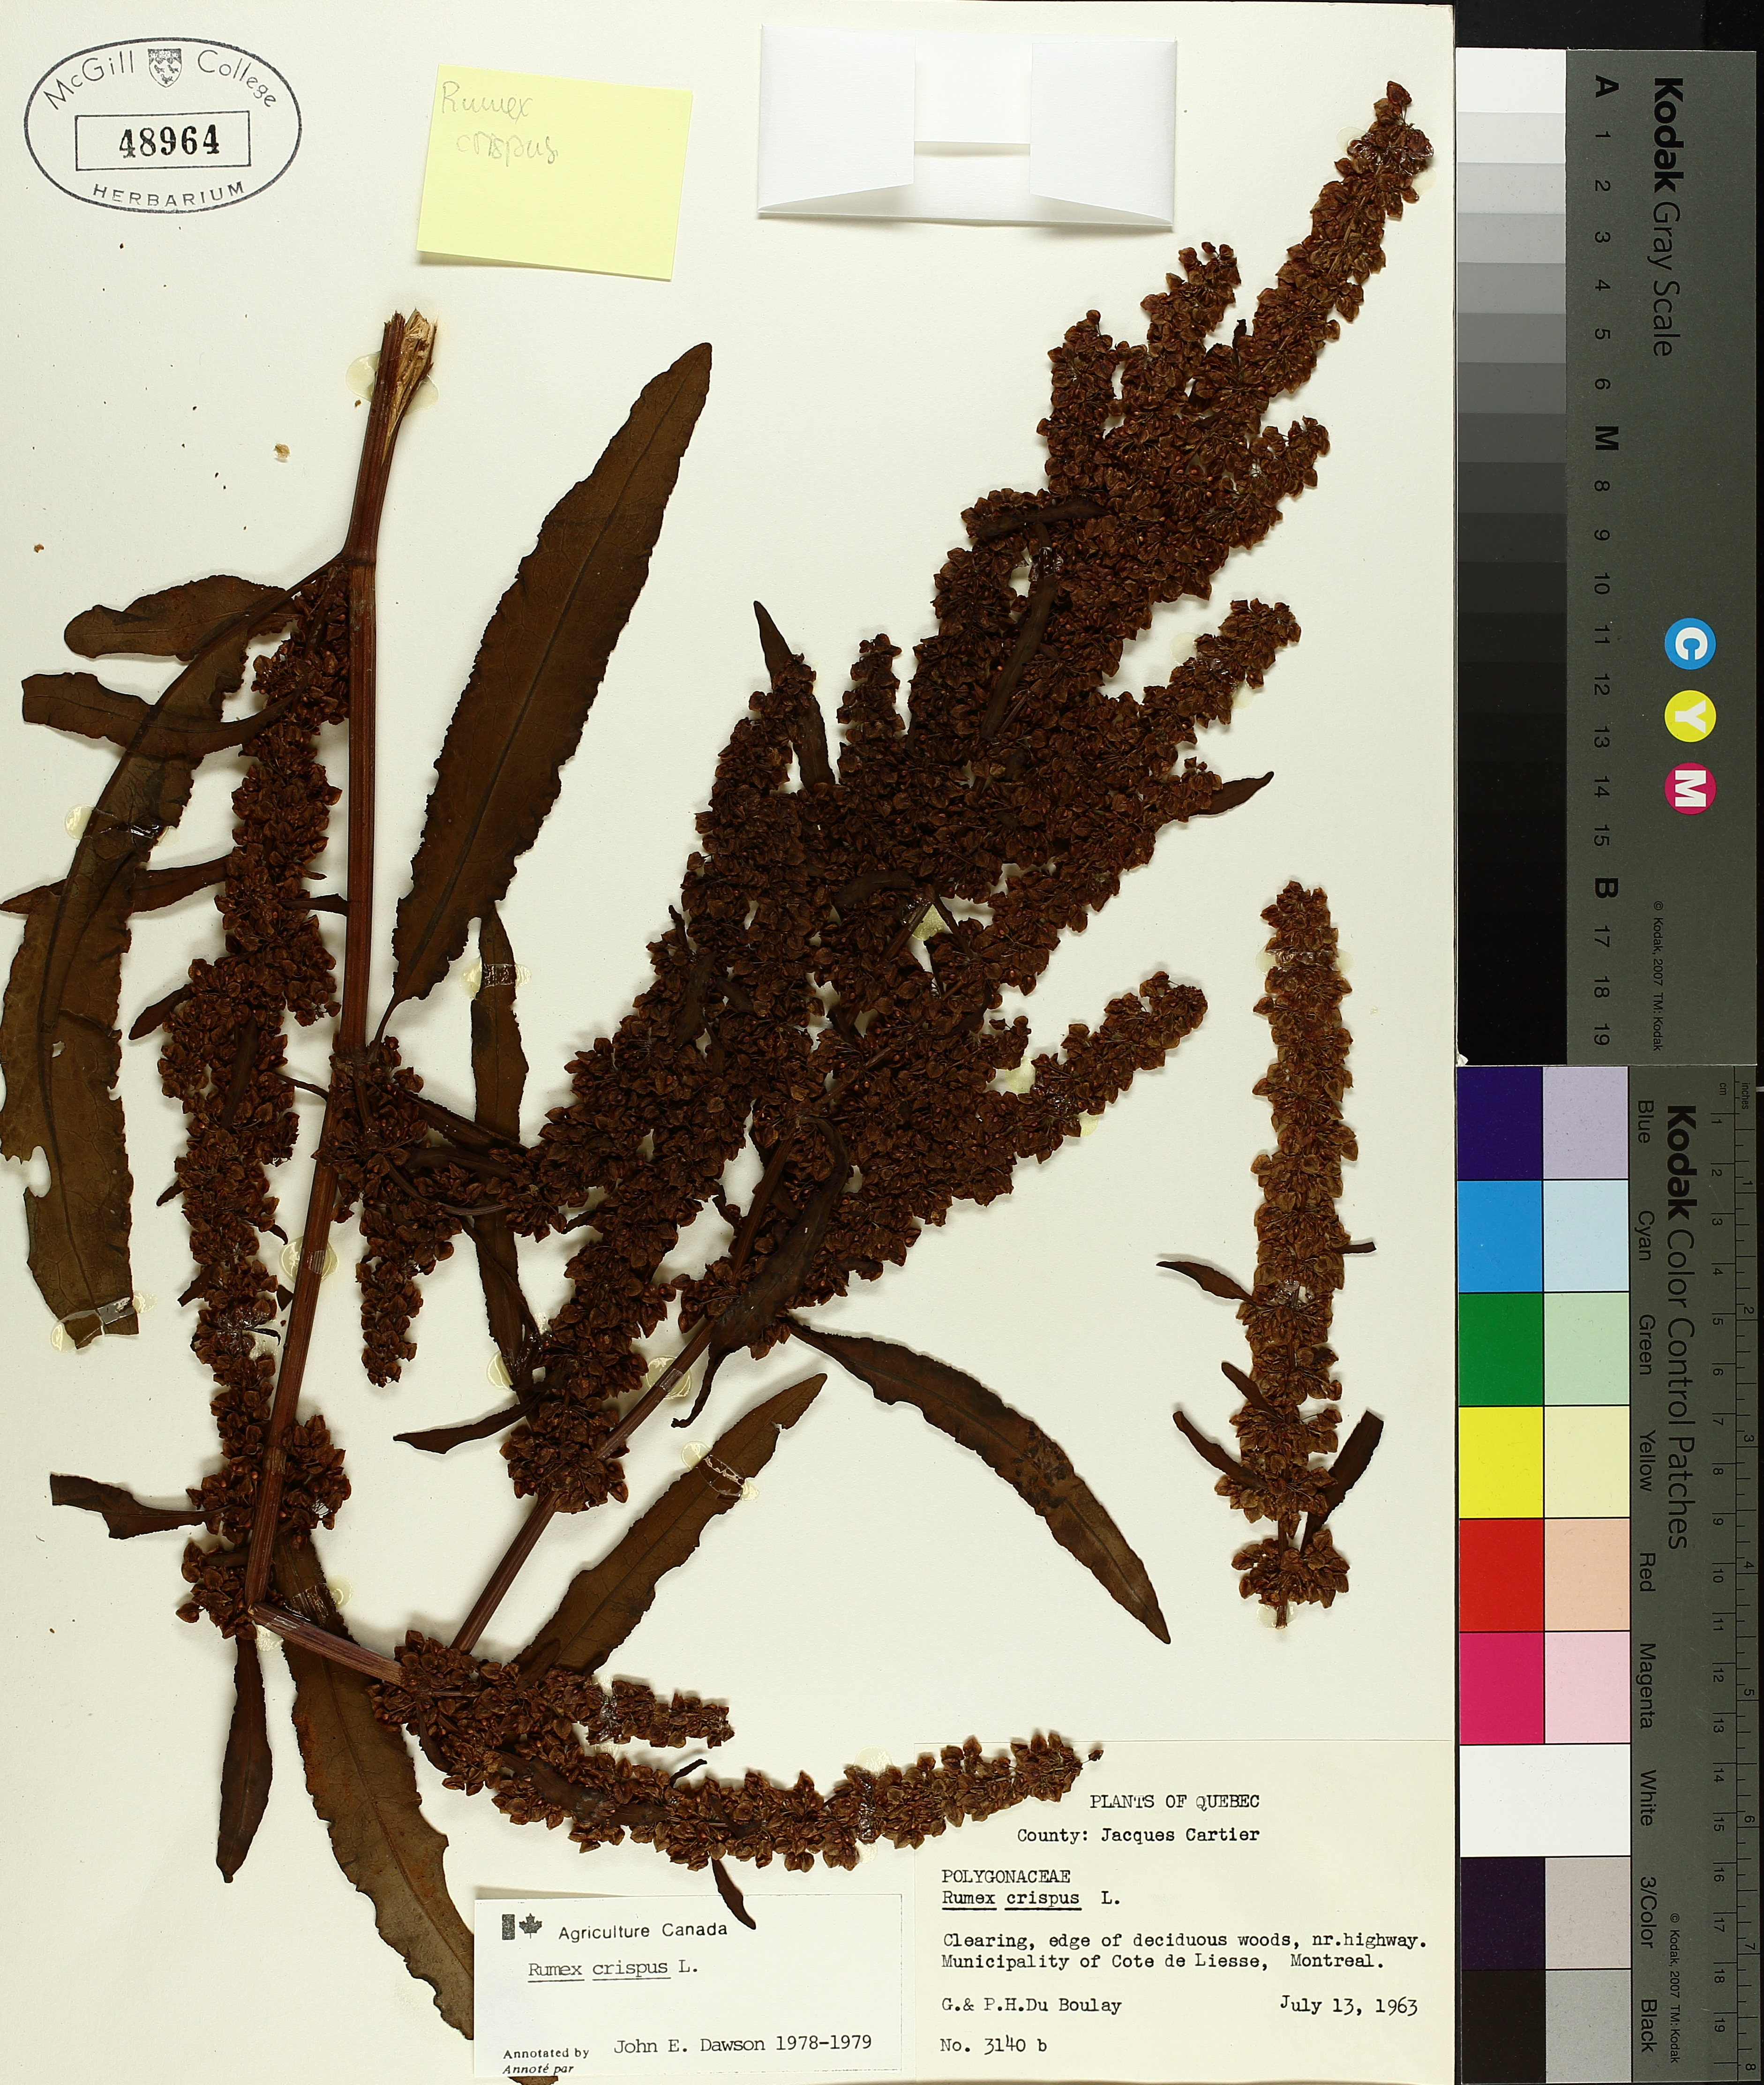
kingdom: Plantae
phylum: Tracheophyta
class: Magnoliopsida
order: Caryophyllales
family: Polygonaceae
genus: Rumex
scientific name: Rumex crispus
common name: Curled dock
